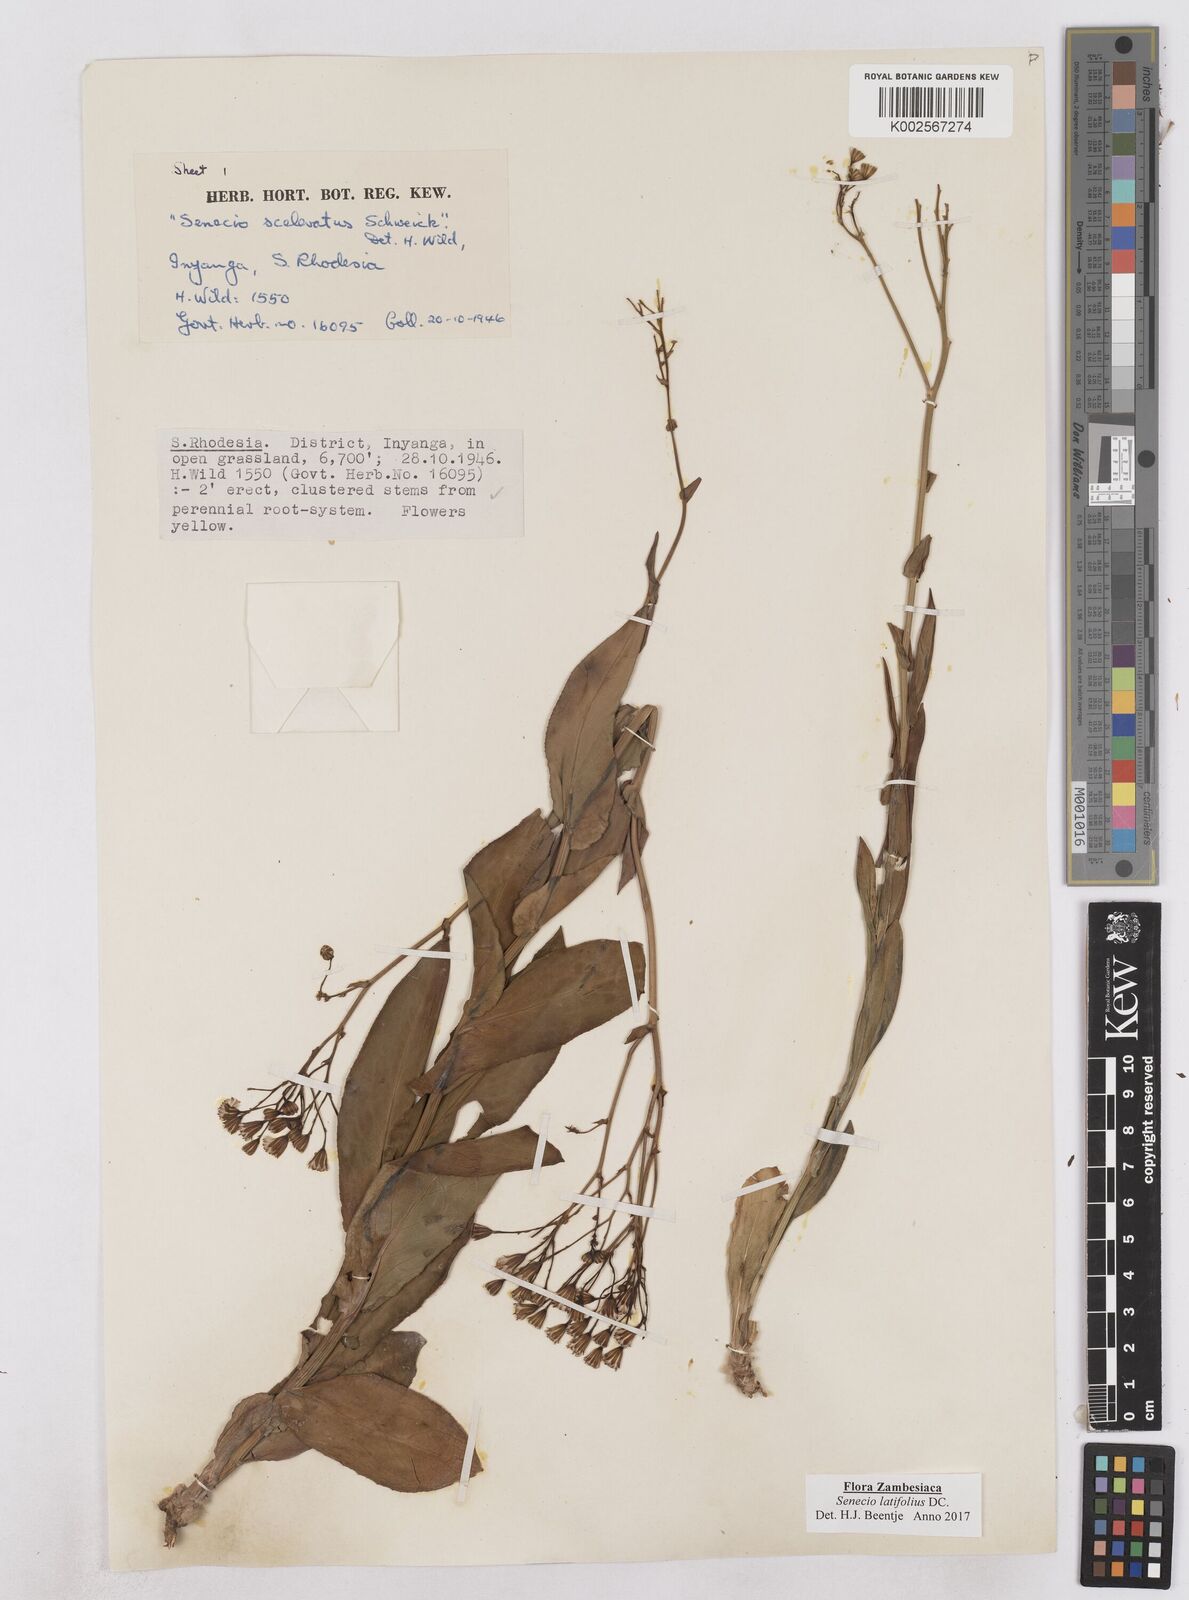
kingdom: Plantae
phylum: Tracheophyta
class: Magnoliopsida
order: Asterales
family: Asteraceae
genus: Senecio
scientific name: Senecio latifolius
